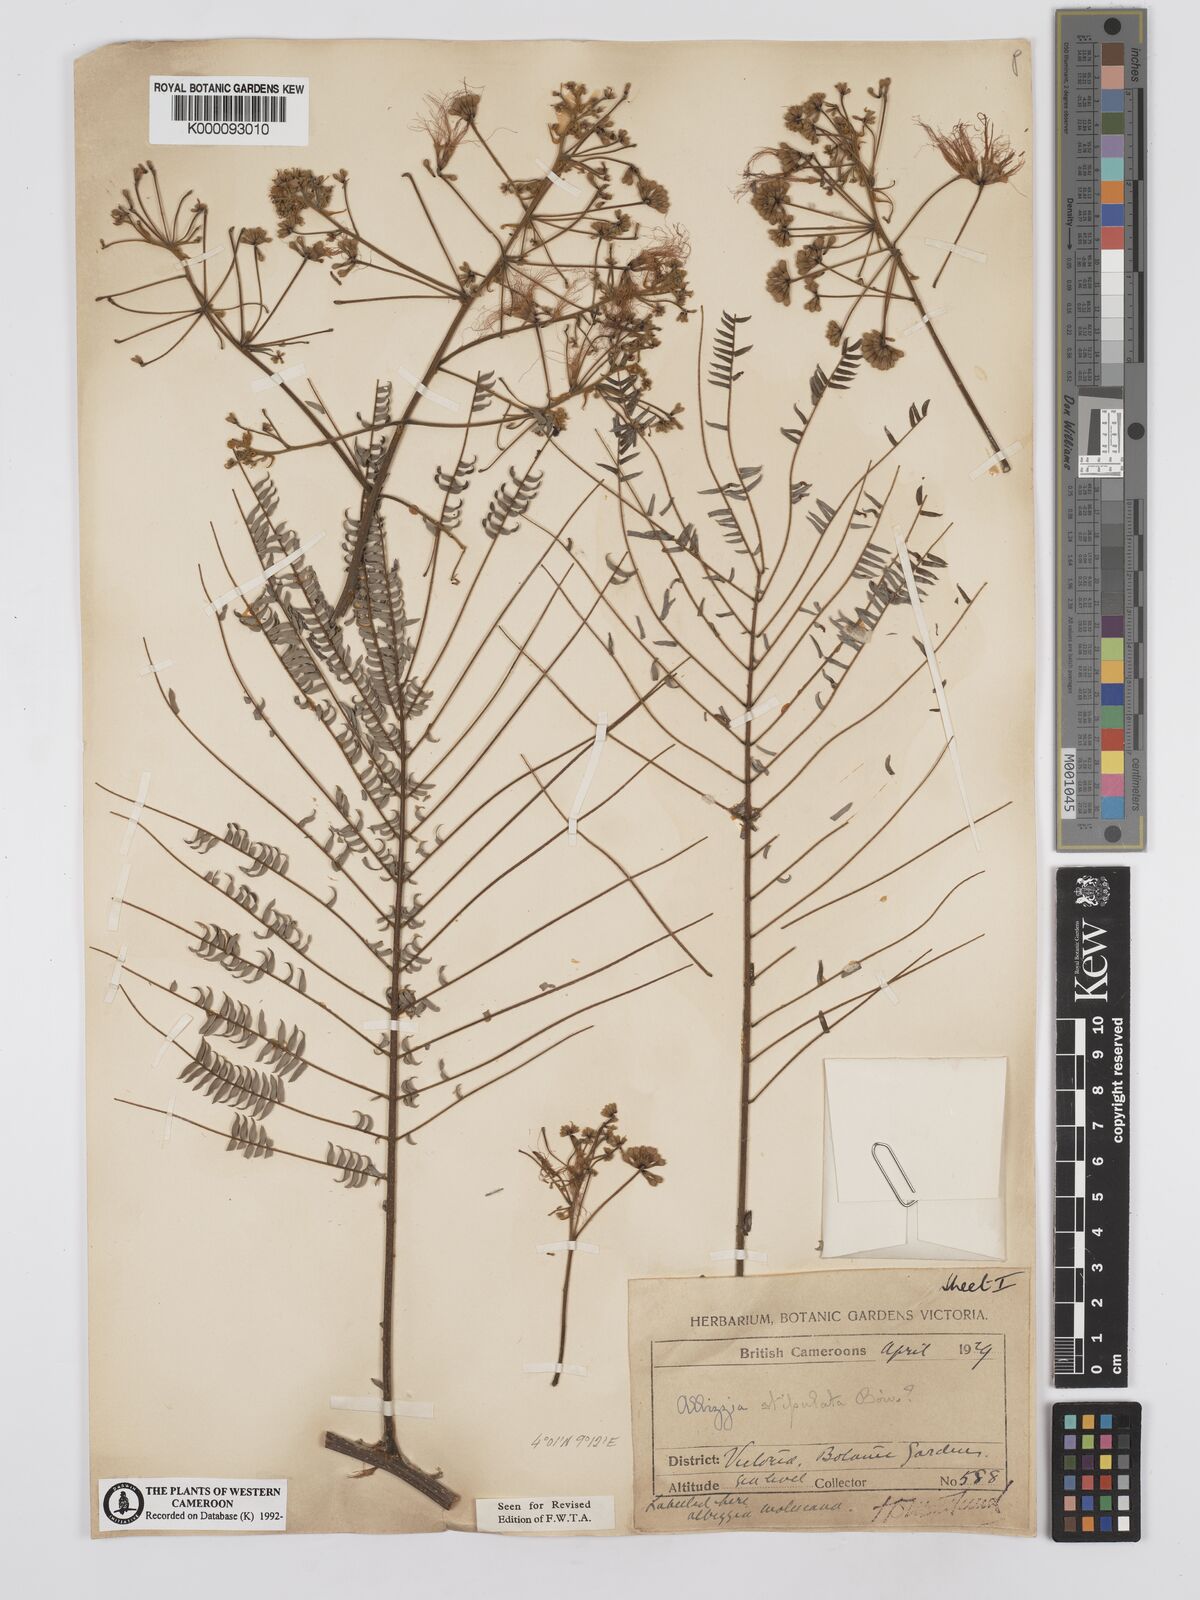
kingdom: Plantae
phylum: Tracheophyta
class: Magnoliopsida
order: Fabales
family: Fabaceae
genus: Albizia
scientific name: Albizia
